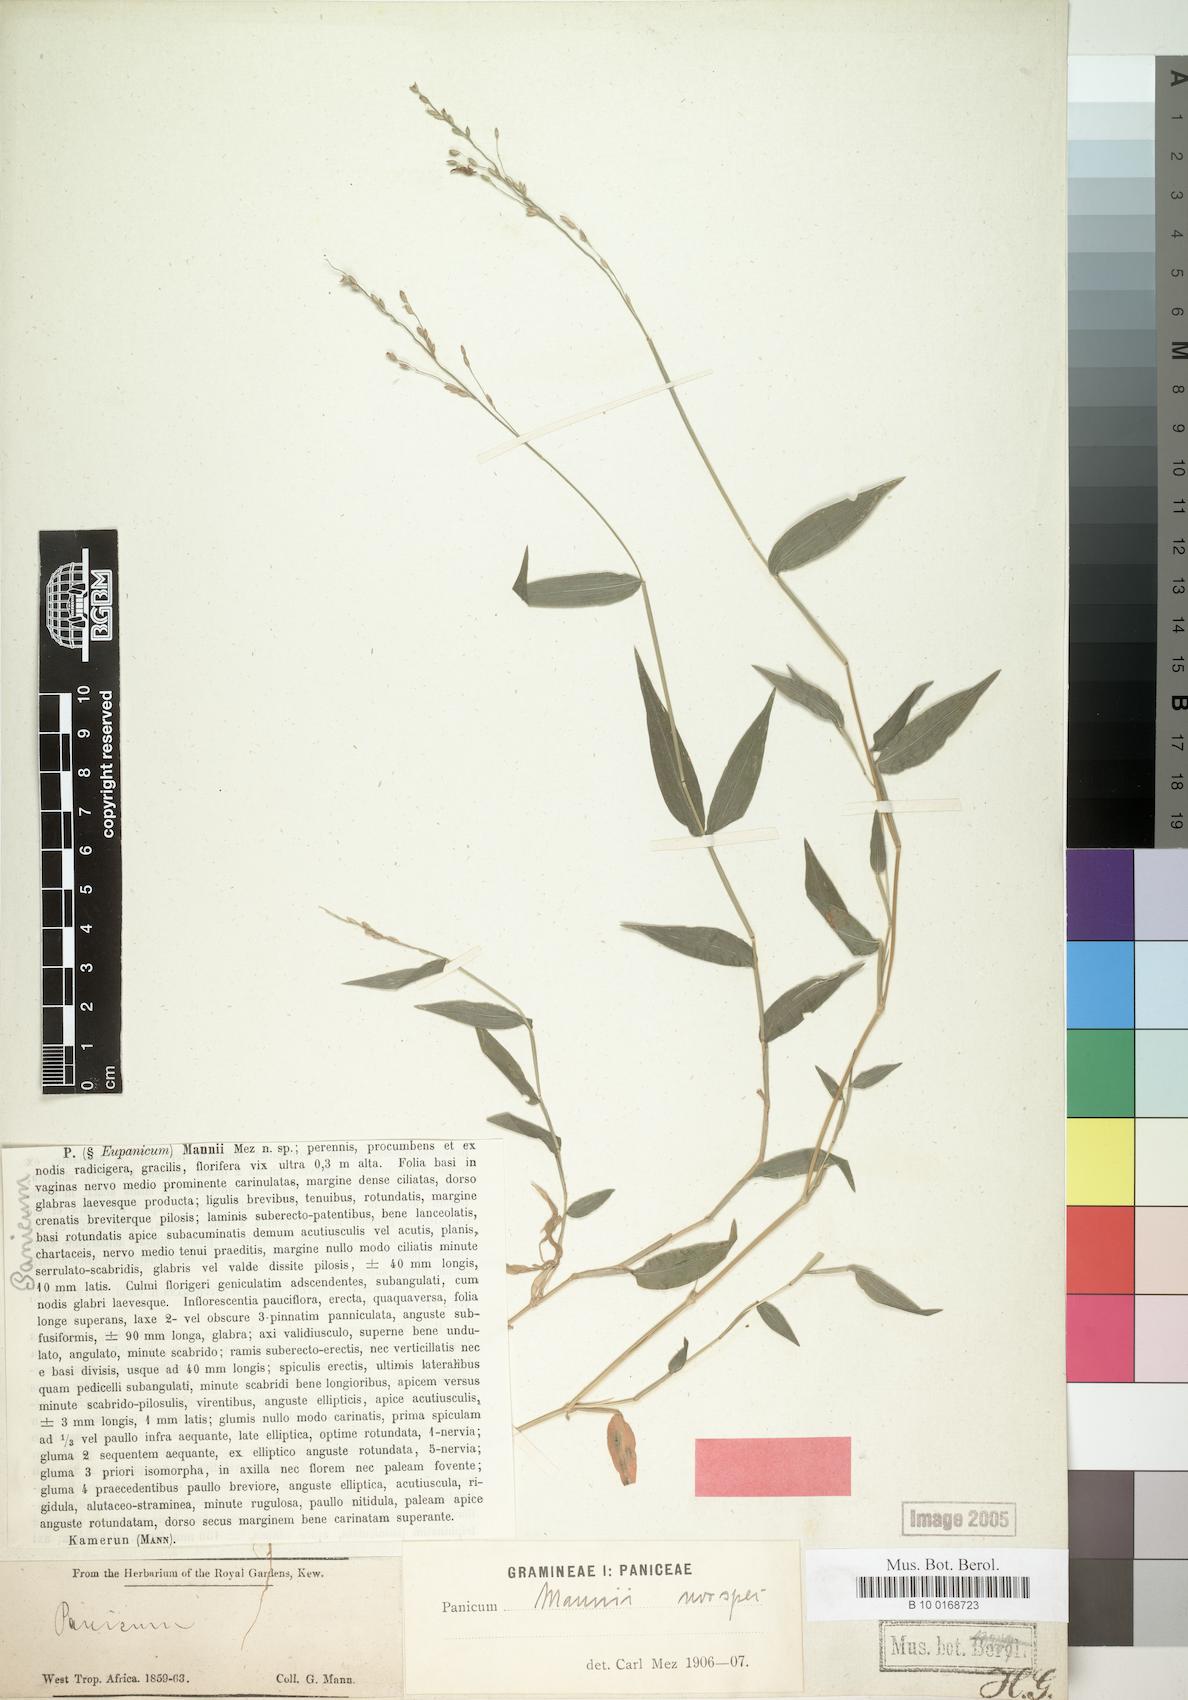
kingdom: Plantae
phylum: Tracheophyta
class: Liliopsida
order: Poales
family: Poaceae
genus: Panicum
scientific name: Panicum monticola
